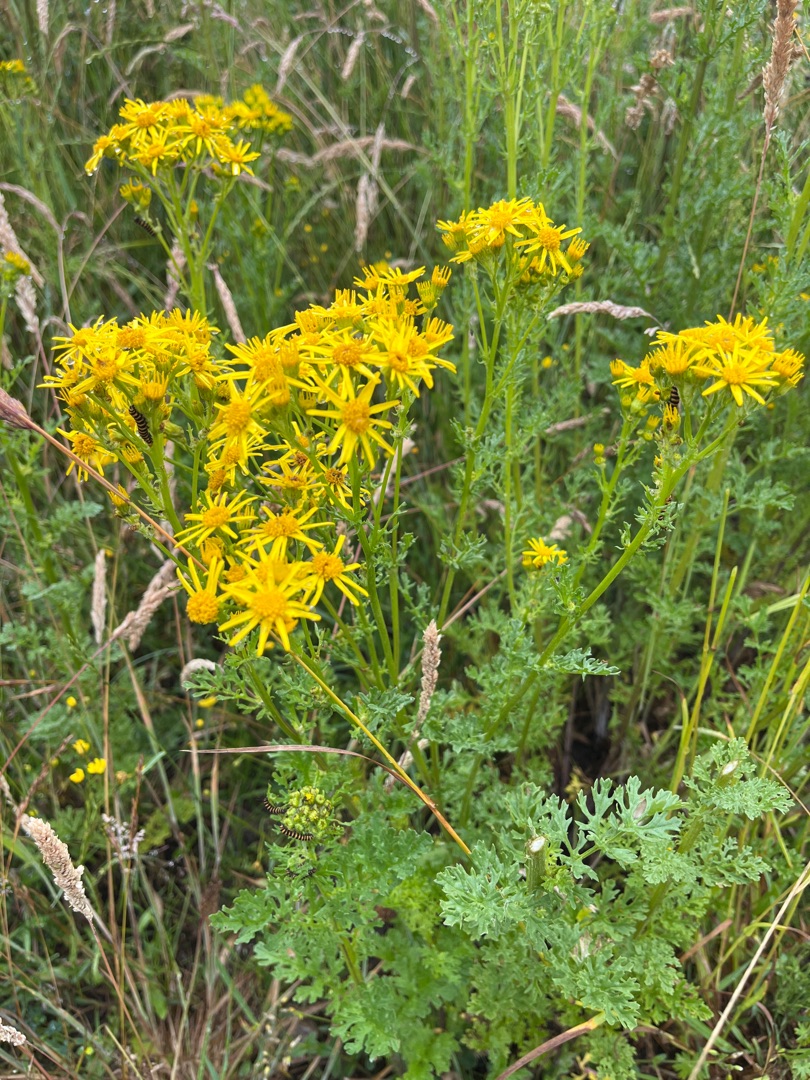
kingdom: Plantae
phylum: Tracheophyta
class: Magnoliopsida
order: Asterales
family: Asteraceae
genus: Jacobaea
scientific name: Jacobaea vulgaris
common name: Eng-brandbæger
